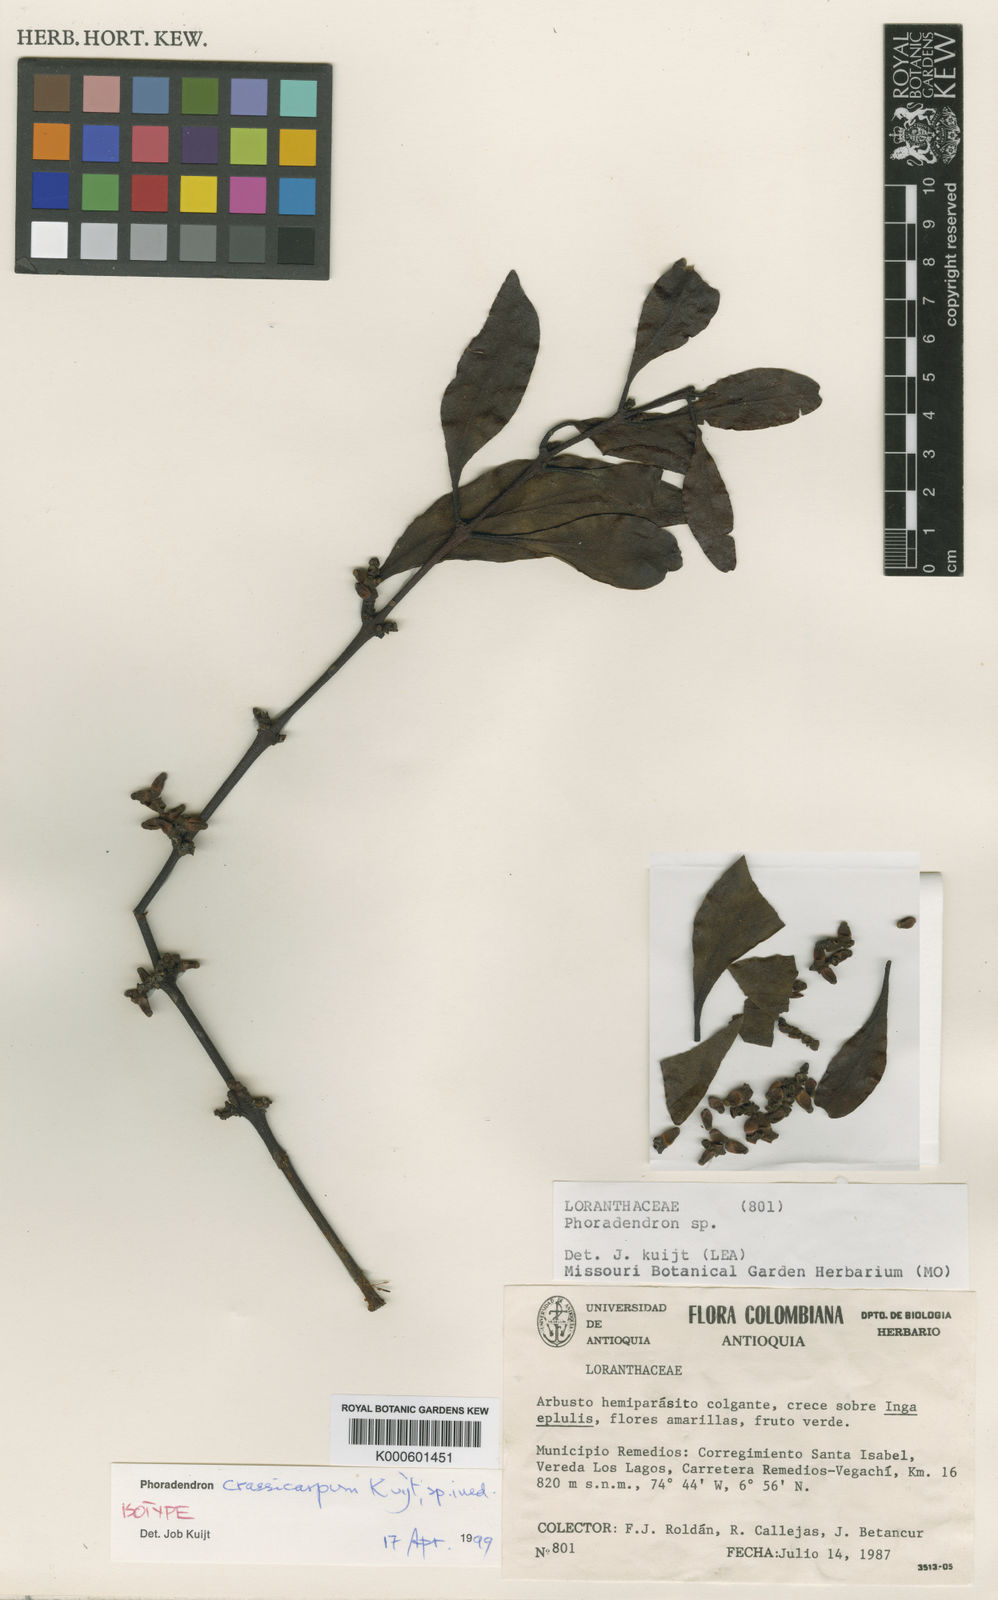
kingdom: Plantae
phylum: Tracheophyta
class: Magnoliopsida
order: Santalales
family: Viscaceae
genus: Phoradendron
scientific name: Phoradendron crassicarpum
